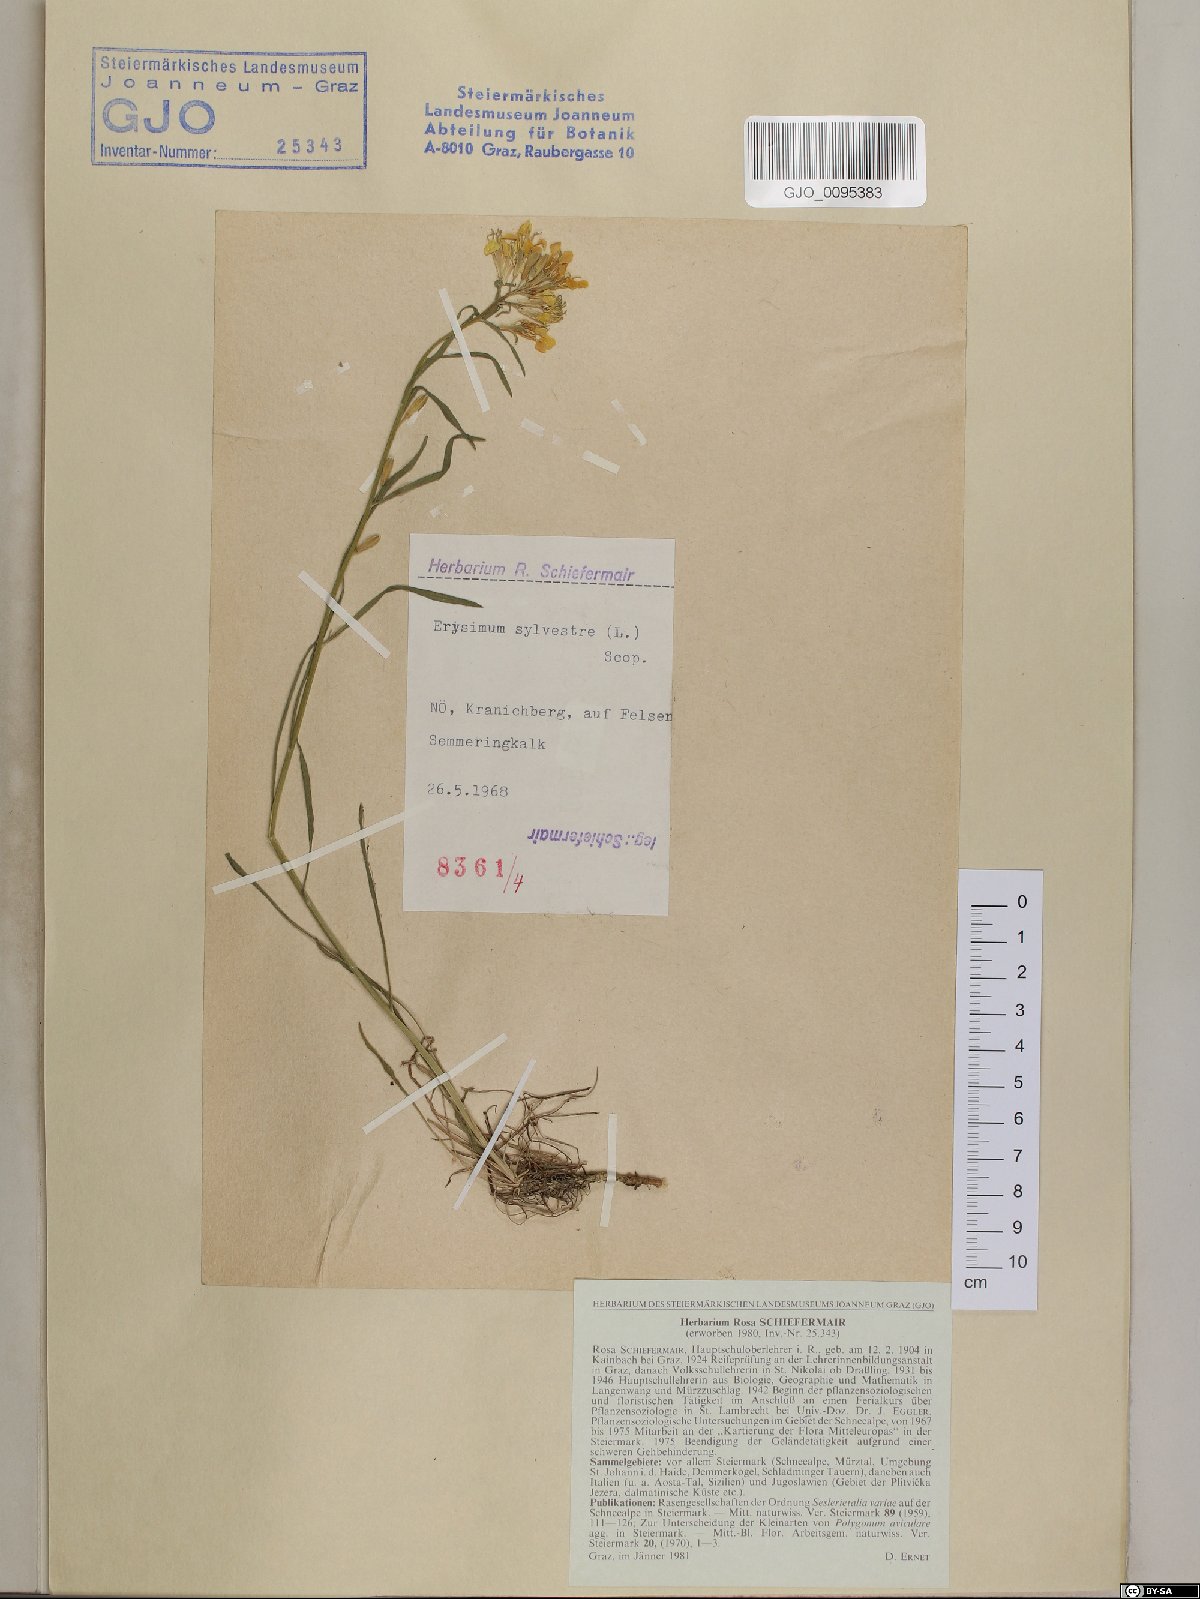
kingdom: Plantae
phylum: Tracheophyta
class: Magnoliopsida
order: Brassicales
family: Brassicaceae
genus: Erysimum
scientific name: Erysimum sylvestre
